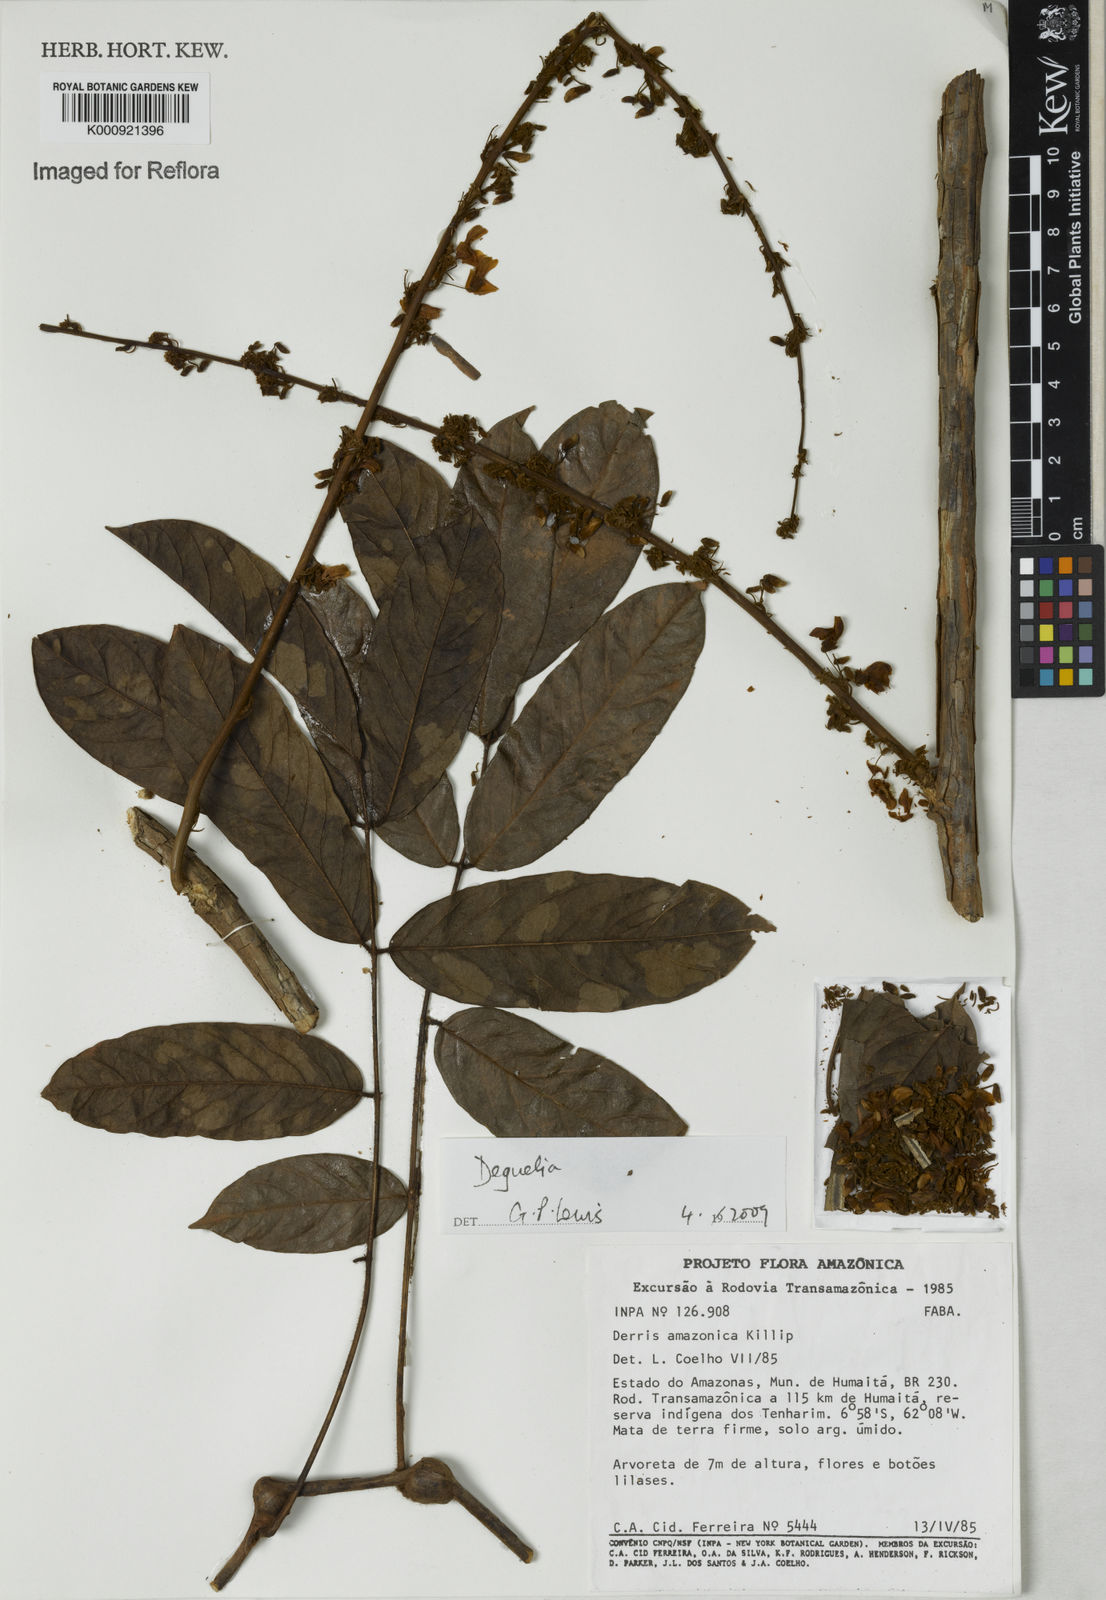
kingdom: Plantae
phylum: Tracheophyta
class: Magnoliopsida
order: Fabales
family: Fabaceae
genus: Deguelia
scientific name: Deguelia
